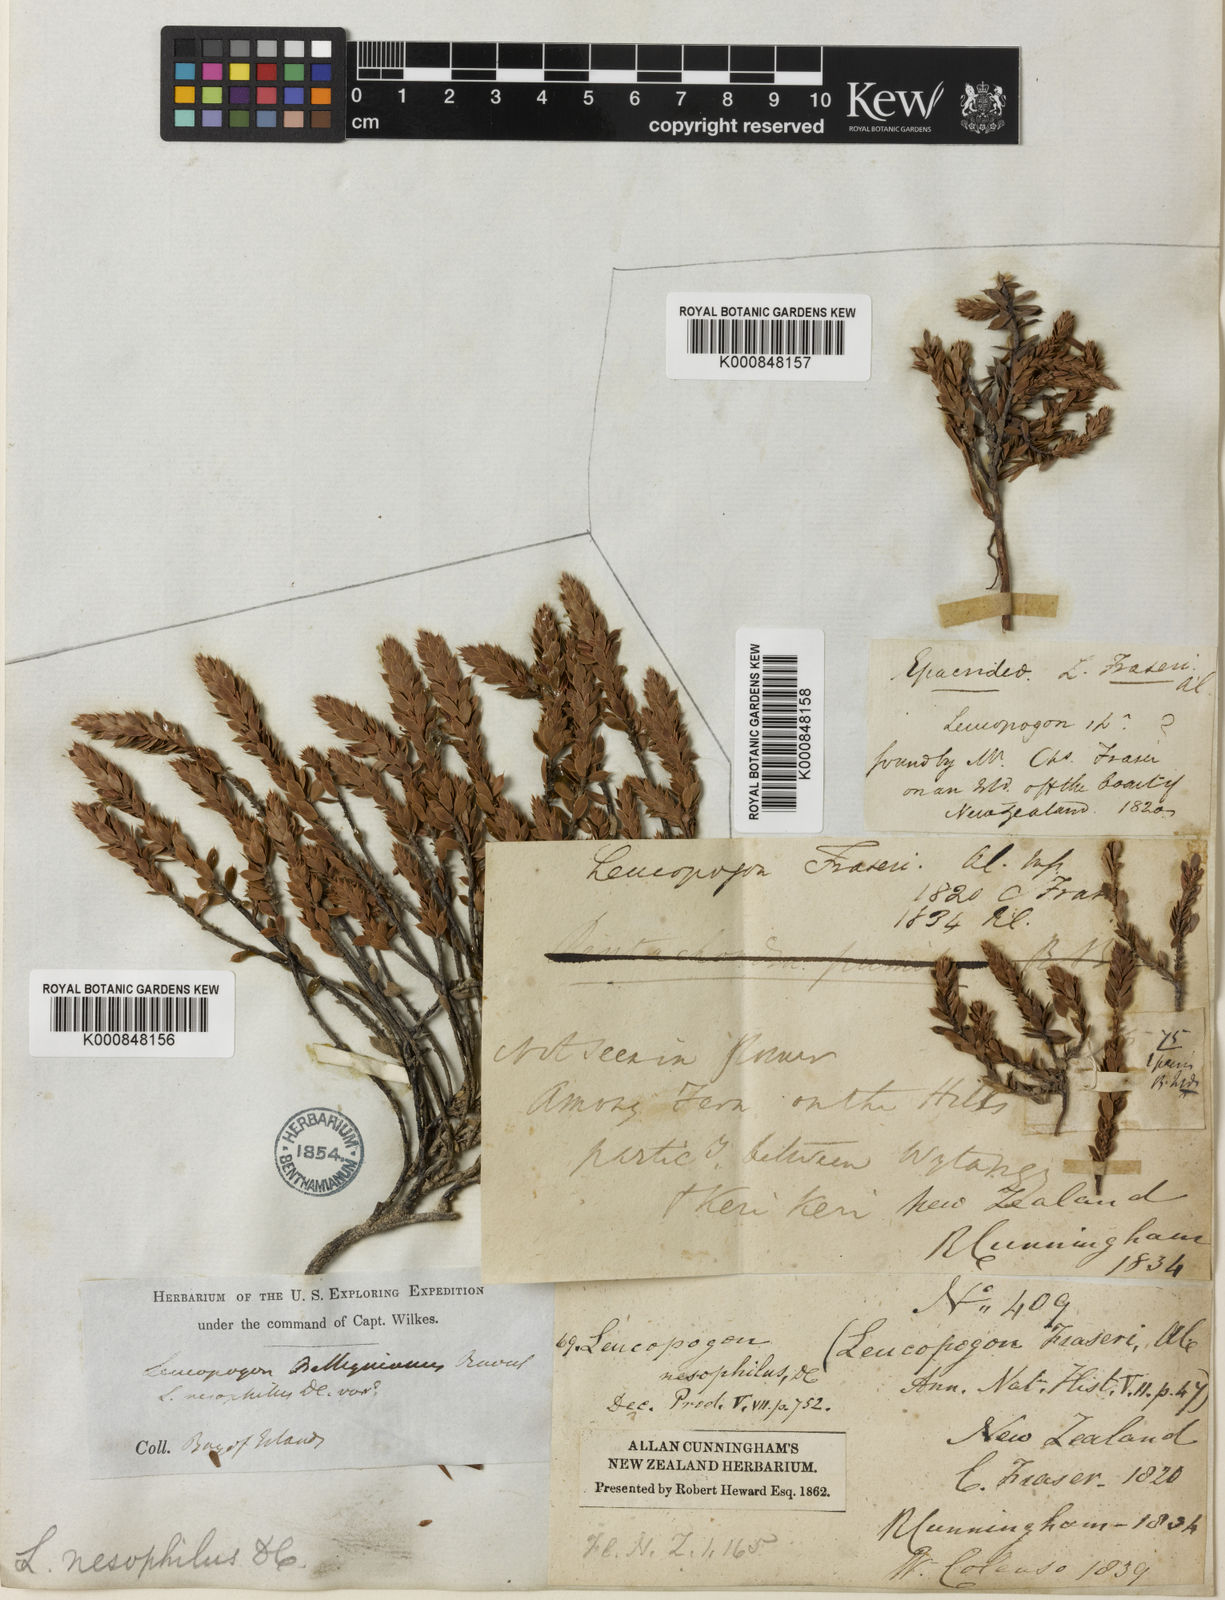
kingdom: Plantae
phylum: Tracheophyta
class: Magnoliopsida
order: Ericales
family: Ericaceae
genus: Styphelia
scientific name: Styphelia nesophila
